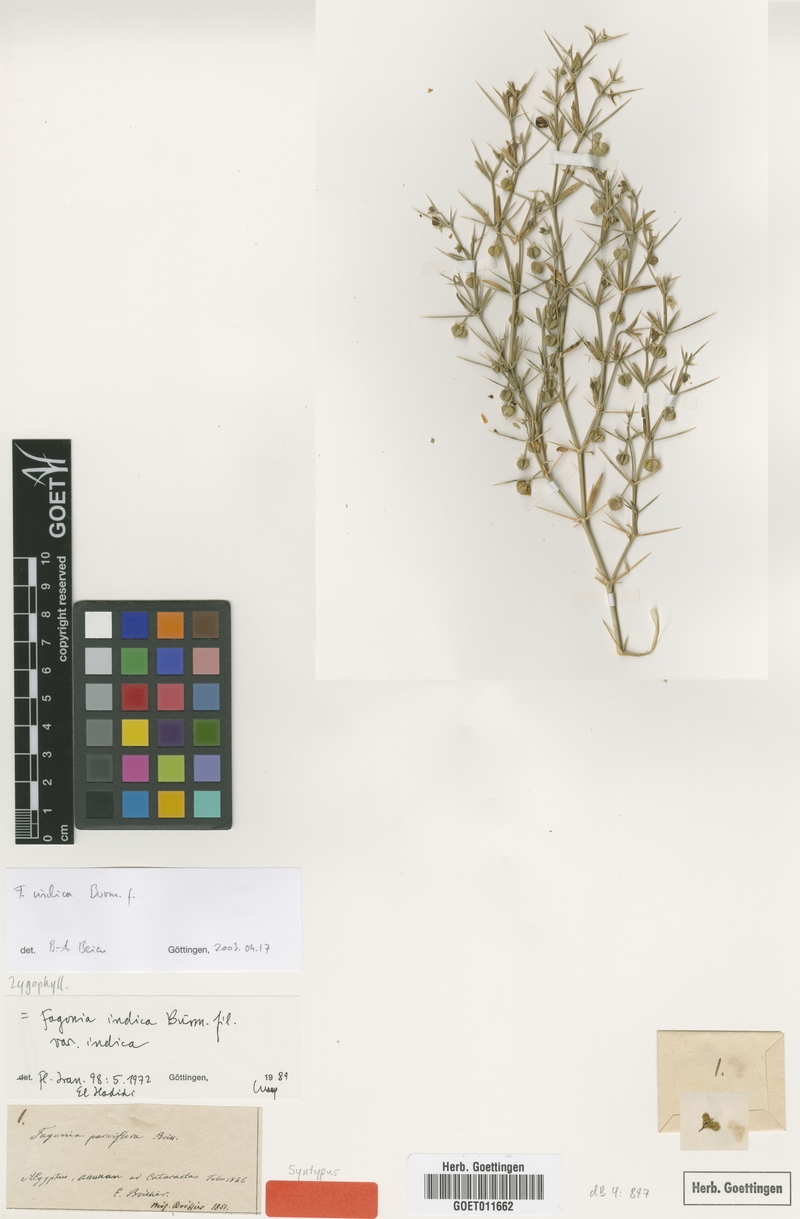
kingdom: Plantae
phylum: Tracheophyta
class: Magnoliopsida
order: Zygophyllales
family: Zygophyllaceae
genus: Fagonia
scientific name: Fagonia indica
